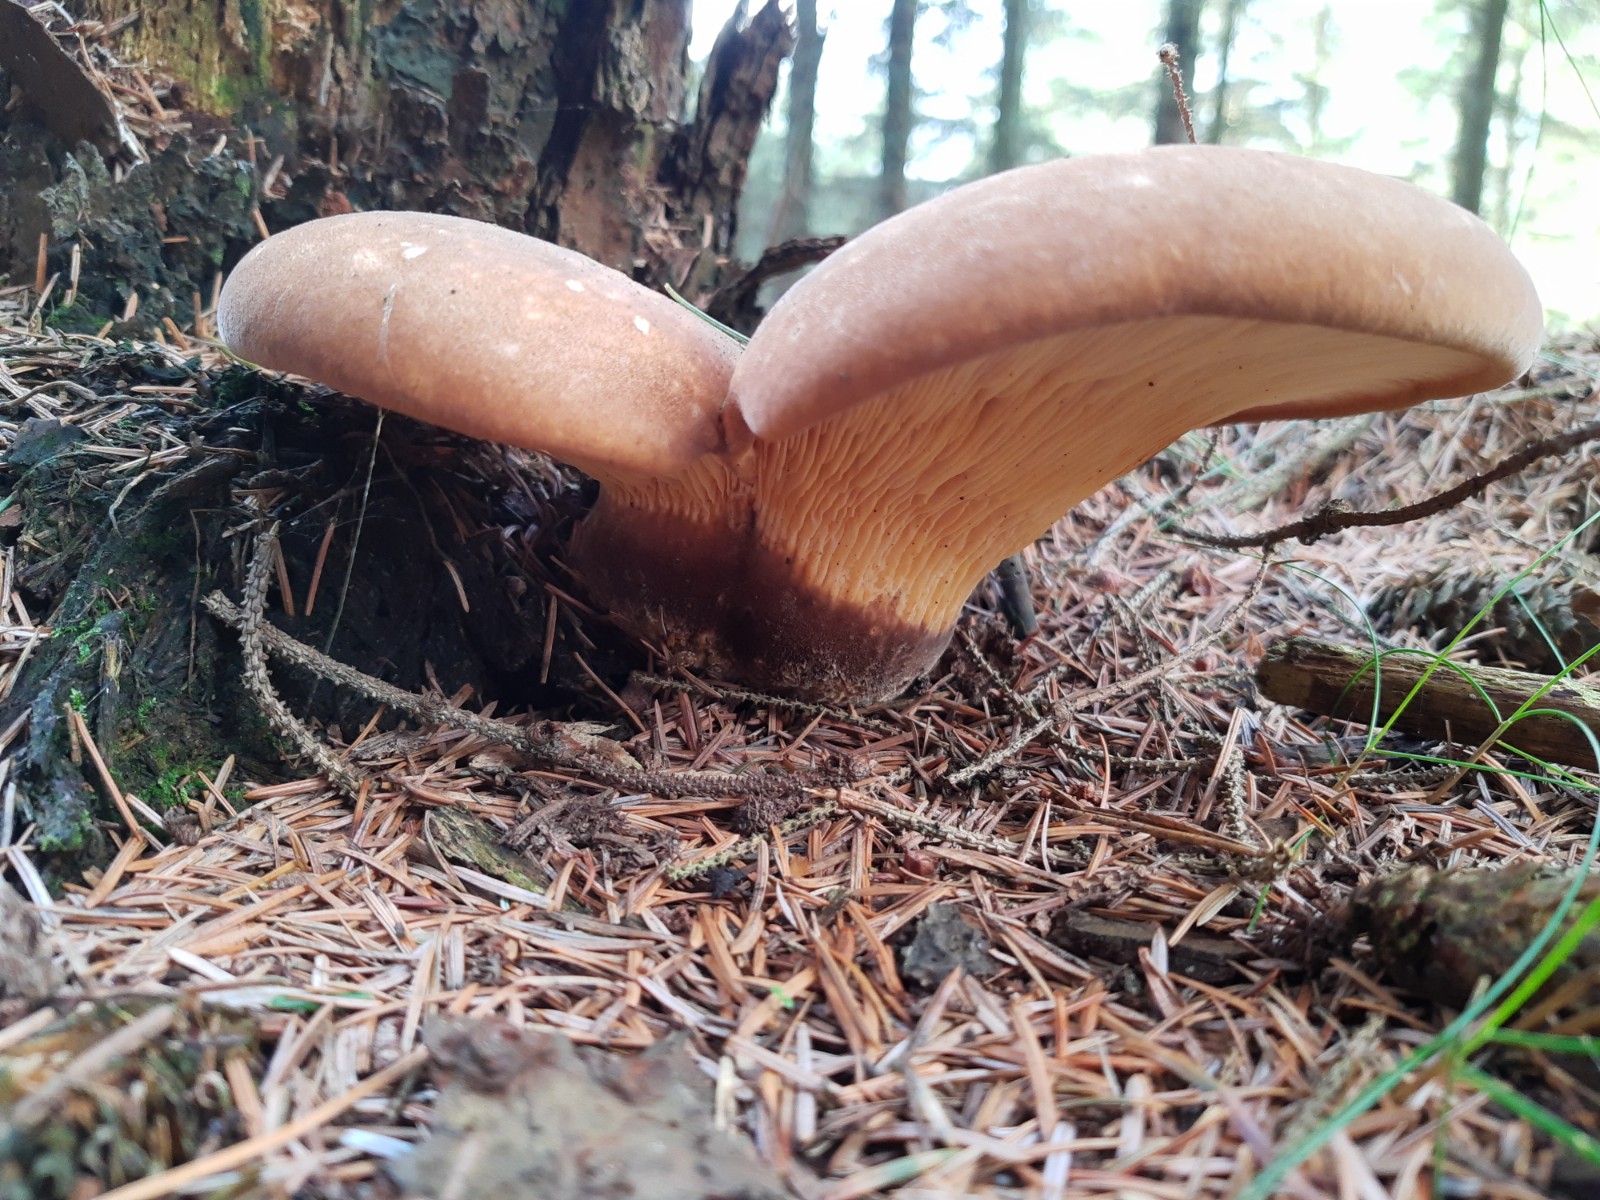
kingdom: Fungi
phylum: Basidiomycota
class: Agaricomycetes
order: Boletales
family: Tapinellaceae
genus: Tapinella
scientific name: Tapinella atrotomentosa
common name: sortfiltet viftesvamp
